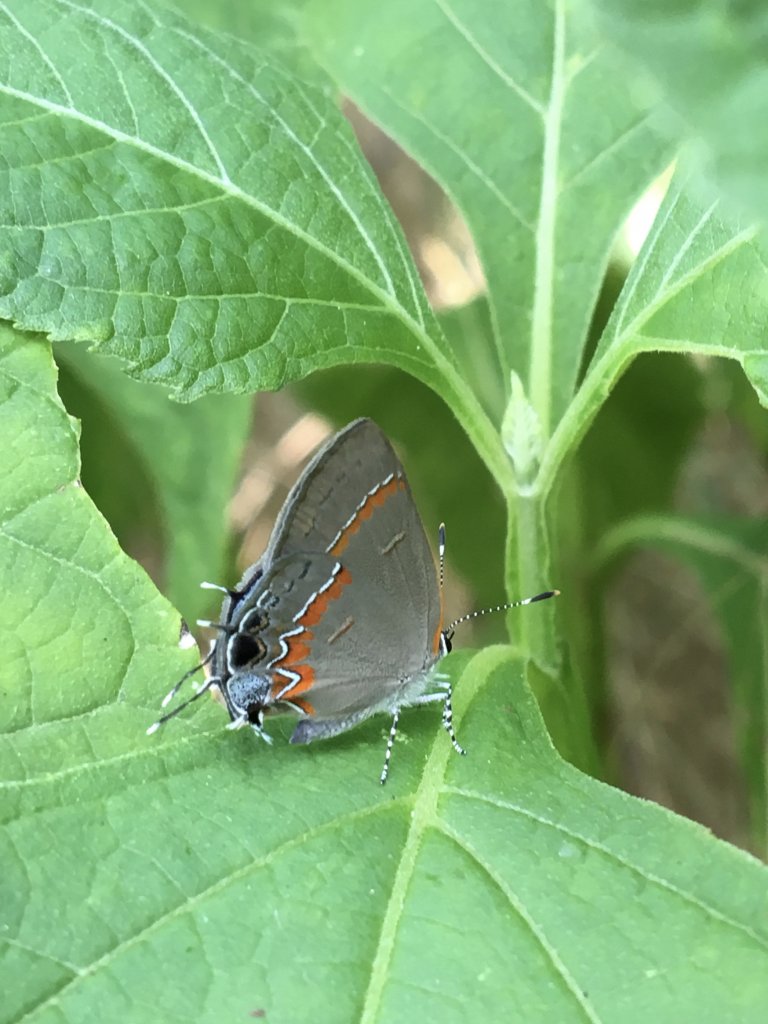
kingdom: Animalia
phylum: Arthropoda
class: Insecta
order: Lepidoptera
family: Lycaenidae
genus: Calycopis
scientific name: Calycopis cecrops
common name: Red-banded Hairstreak
